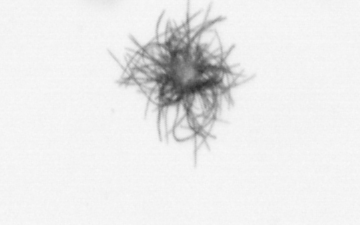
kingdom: Bacteria
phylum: Cyanobacteria
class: Cyanobacteriia
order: Cyanobacteriales
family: Microcoleaceae
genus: Trichodesmium
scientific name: Trichodesmium
